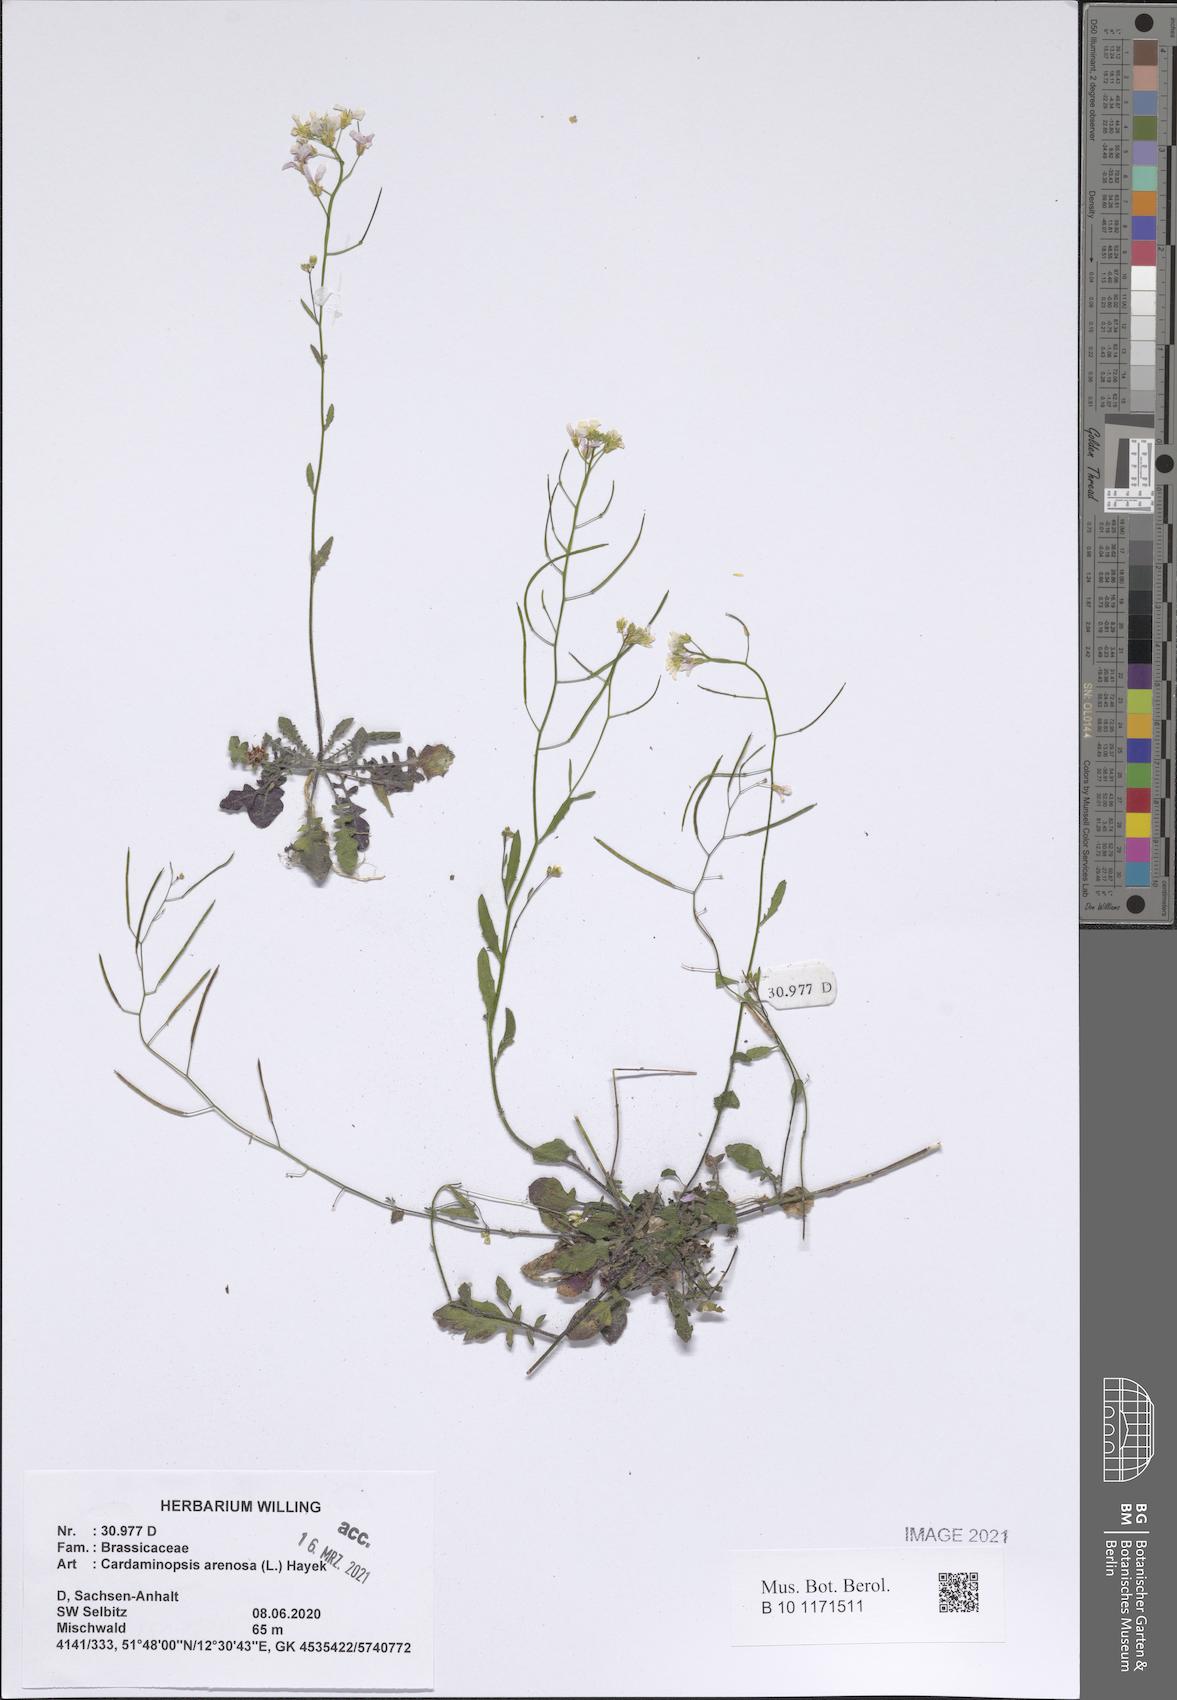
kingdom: Plantae
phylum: Tracheophyta
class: Magnoliopsida
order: Brassicales
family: Brassicaceae
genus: Arabidopsis
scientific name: Arabidopsis arenosa
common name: Sand rock-cress
